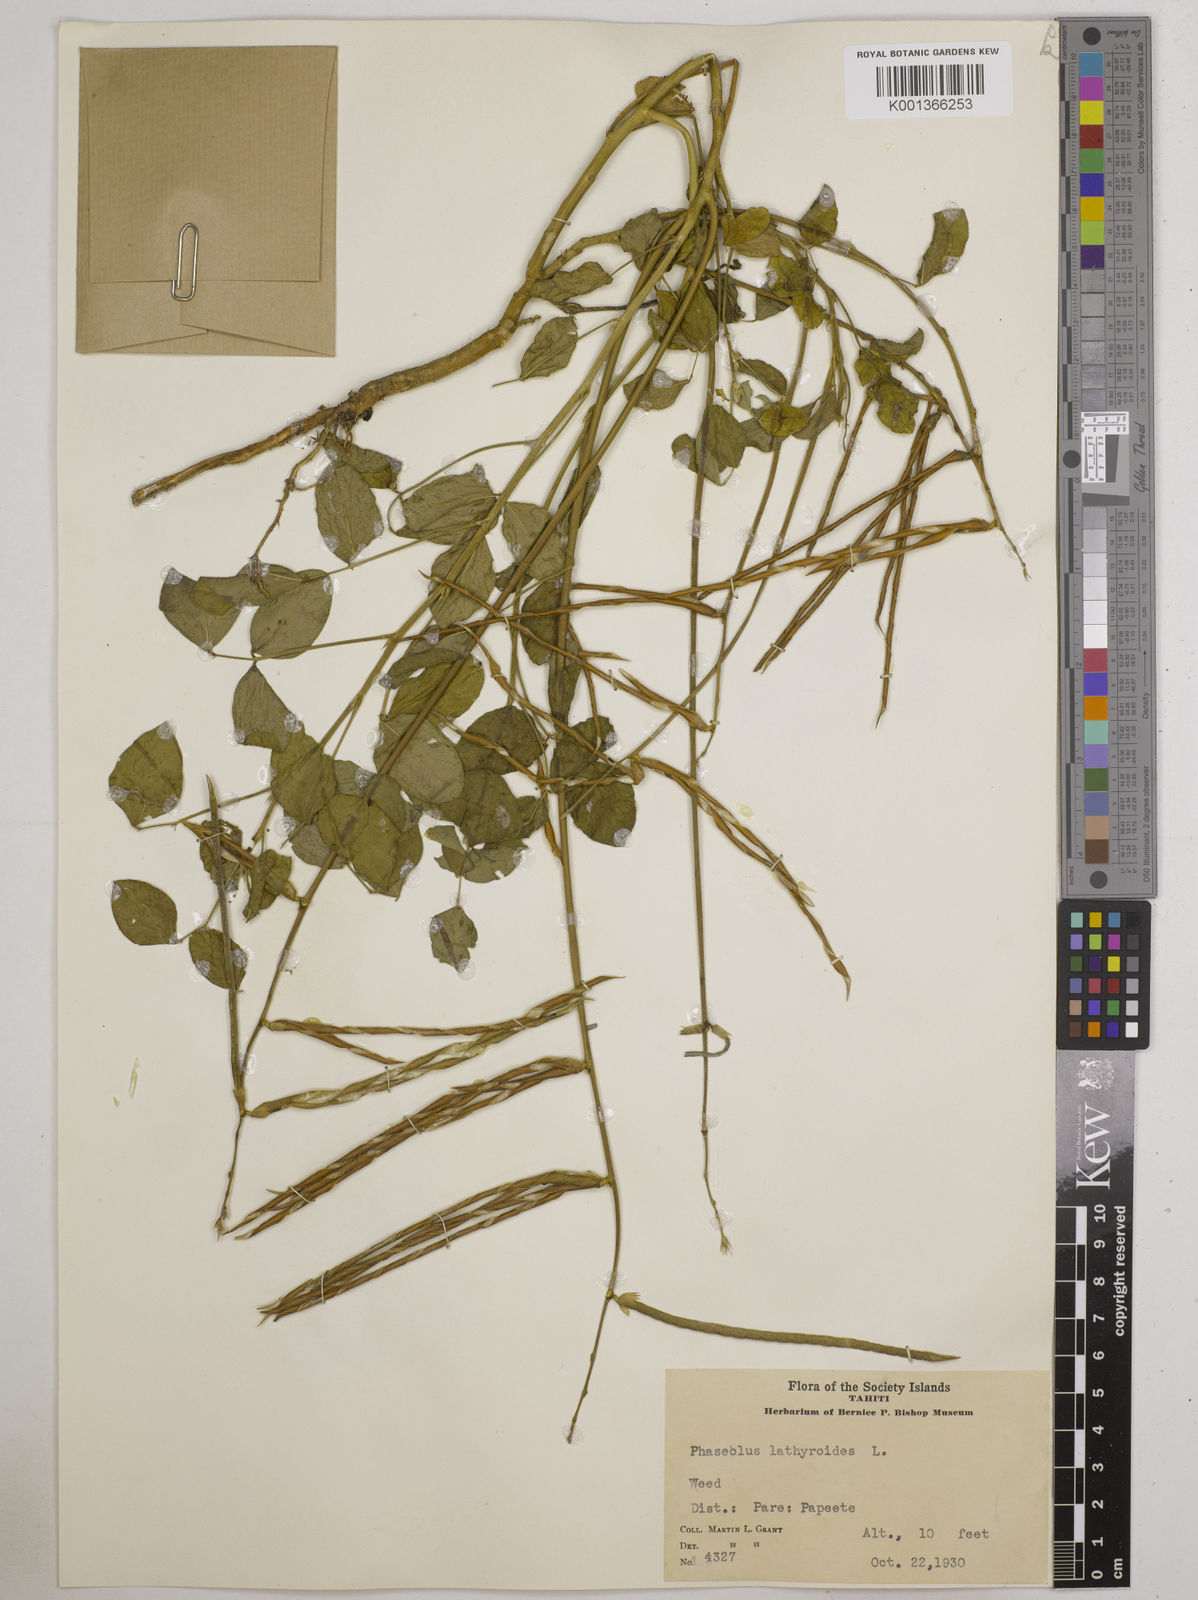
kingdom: Plantae
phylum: Tracheophyta
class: Magnoliopsida
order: Fabales
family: Fabaceae
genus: Macroptilium
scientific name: Macroptilium lathyroides
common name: Wild bushbean
